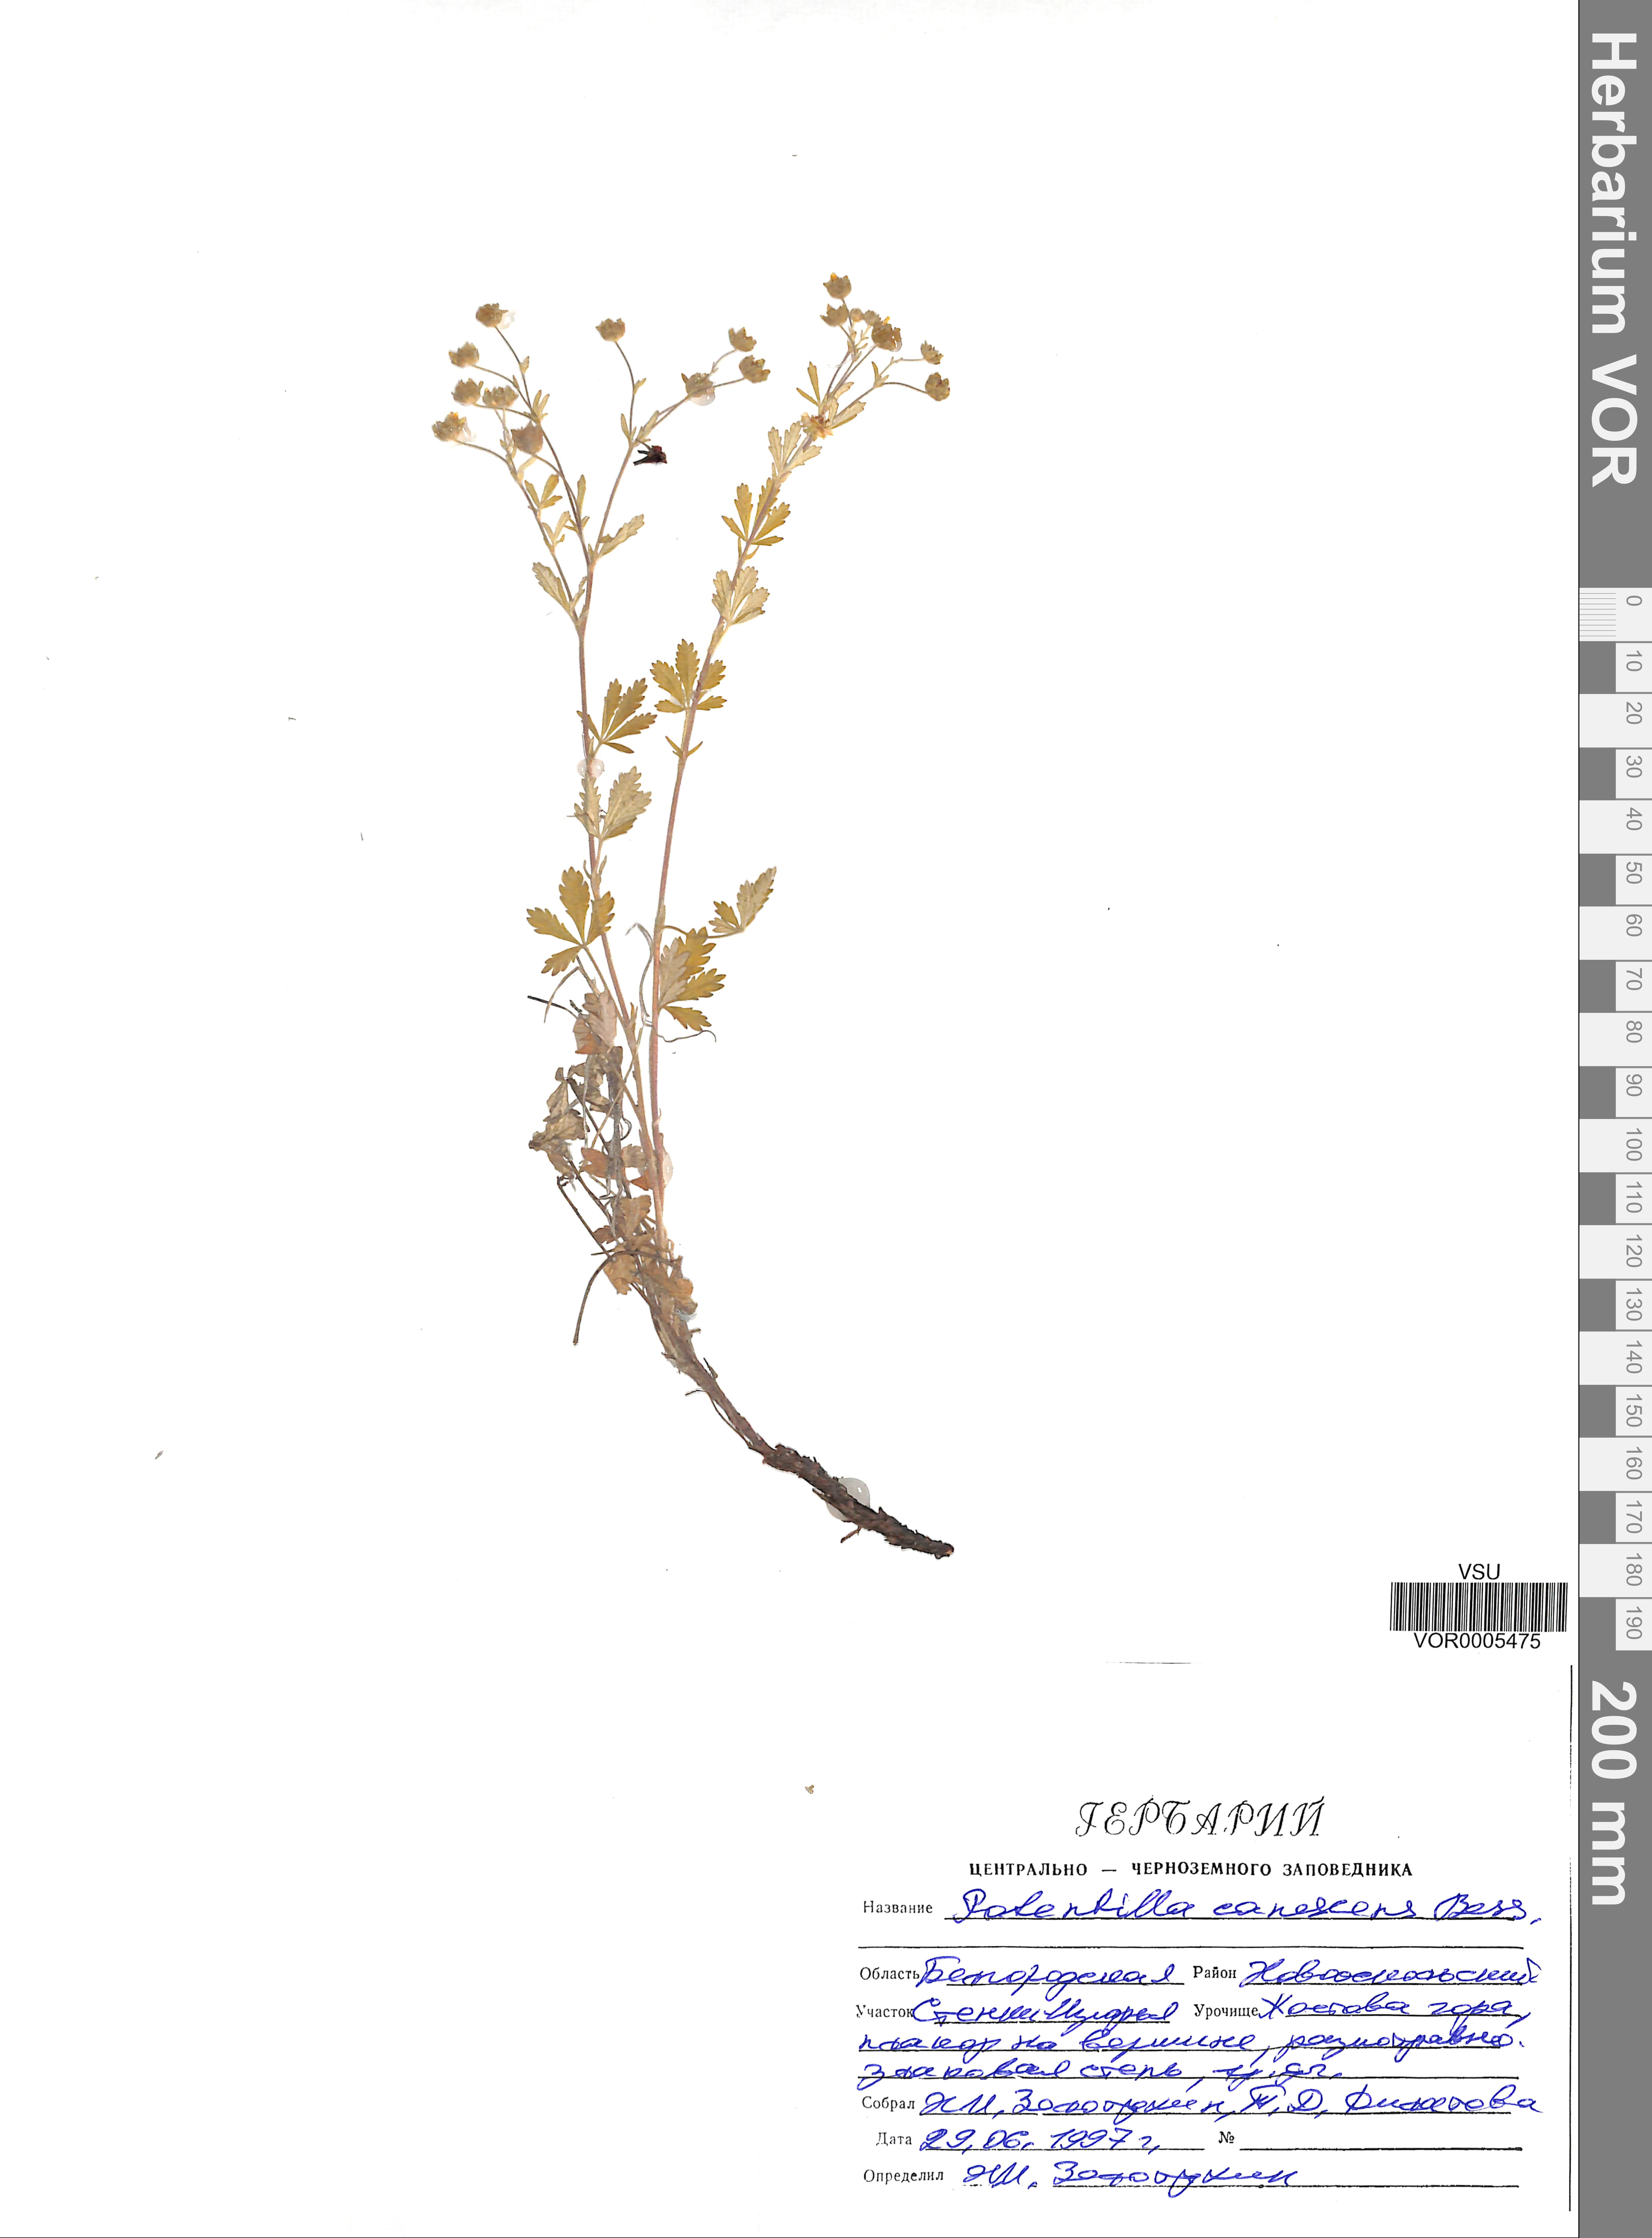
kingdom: Plantae
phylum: Tracheophyta
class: Magnoliopsida
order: Rosales
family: Rosaceae
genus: Potentilla
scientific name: Potentilla inclinata
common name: Grey cinquefoil
